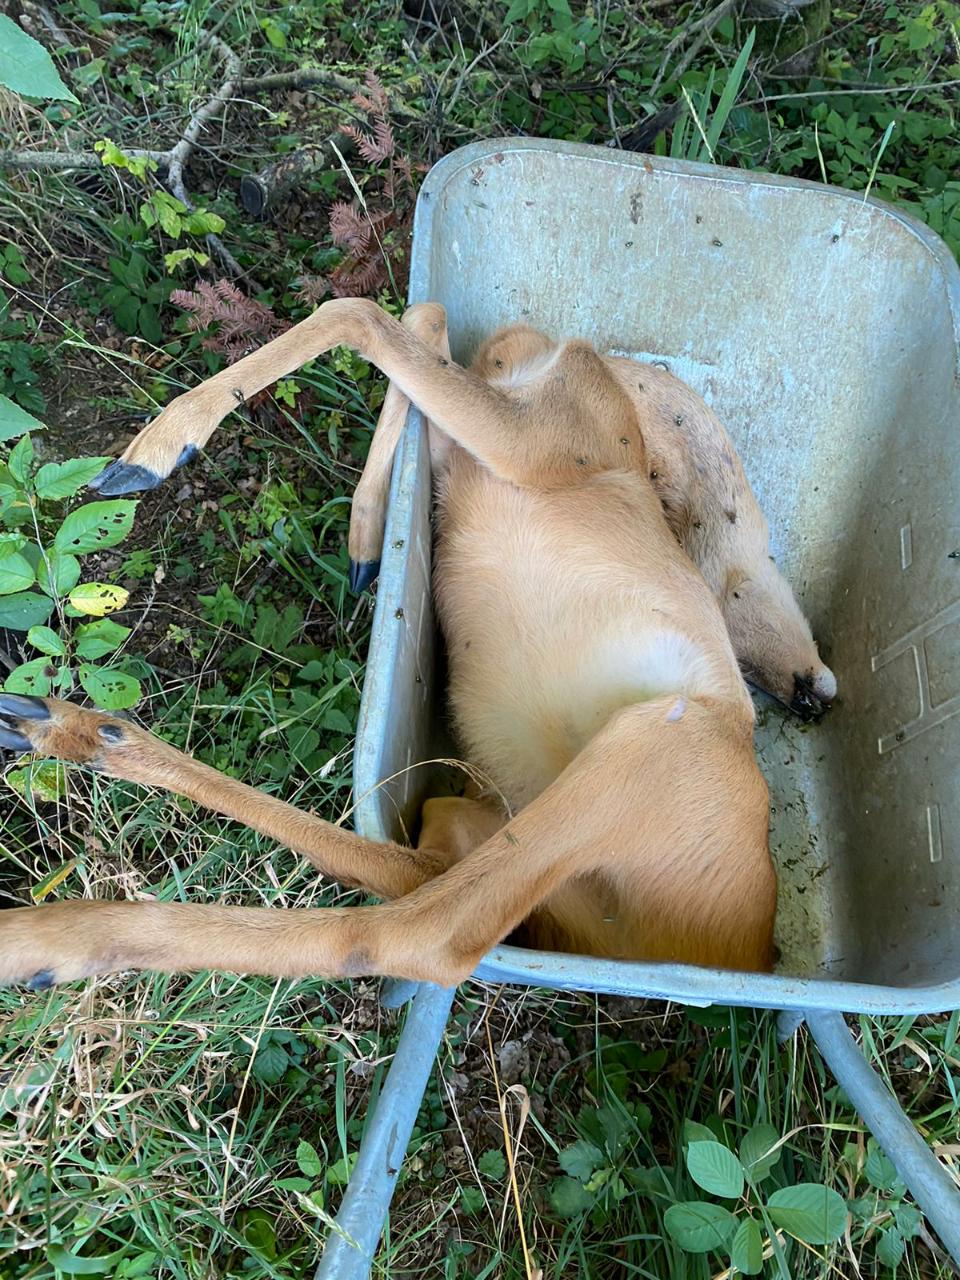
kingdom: Animalia
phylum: Chordata
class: Mammalia
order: Artiodactyla
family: Cervidae
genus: Capreolus
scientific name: Capreolus capreolus
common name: Western roe deer
